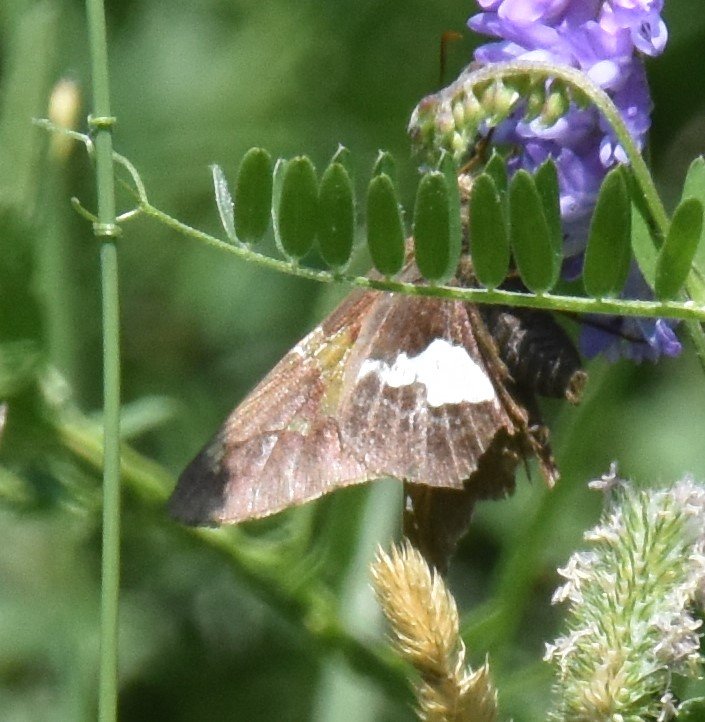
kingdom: Animalia
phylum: Arthropoda
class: Insecta
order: Lepidoptera
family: Hesperiidae
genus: Epargyreus
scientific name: Epargyreus clarus
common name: Silver-spotted Skipper
